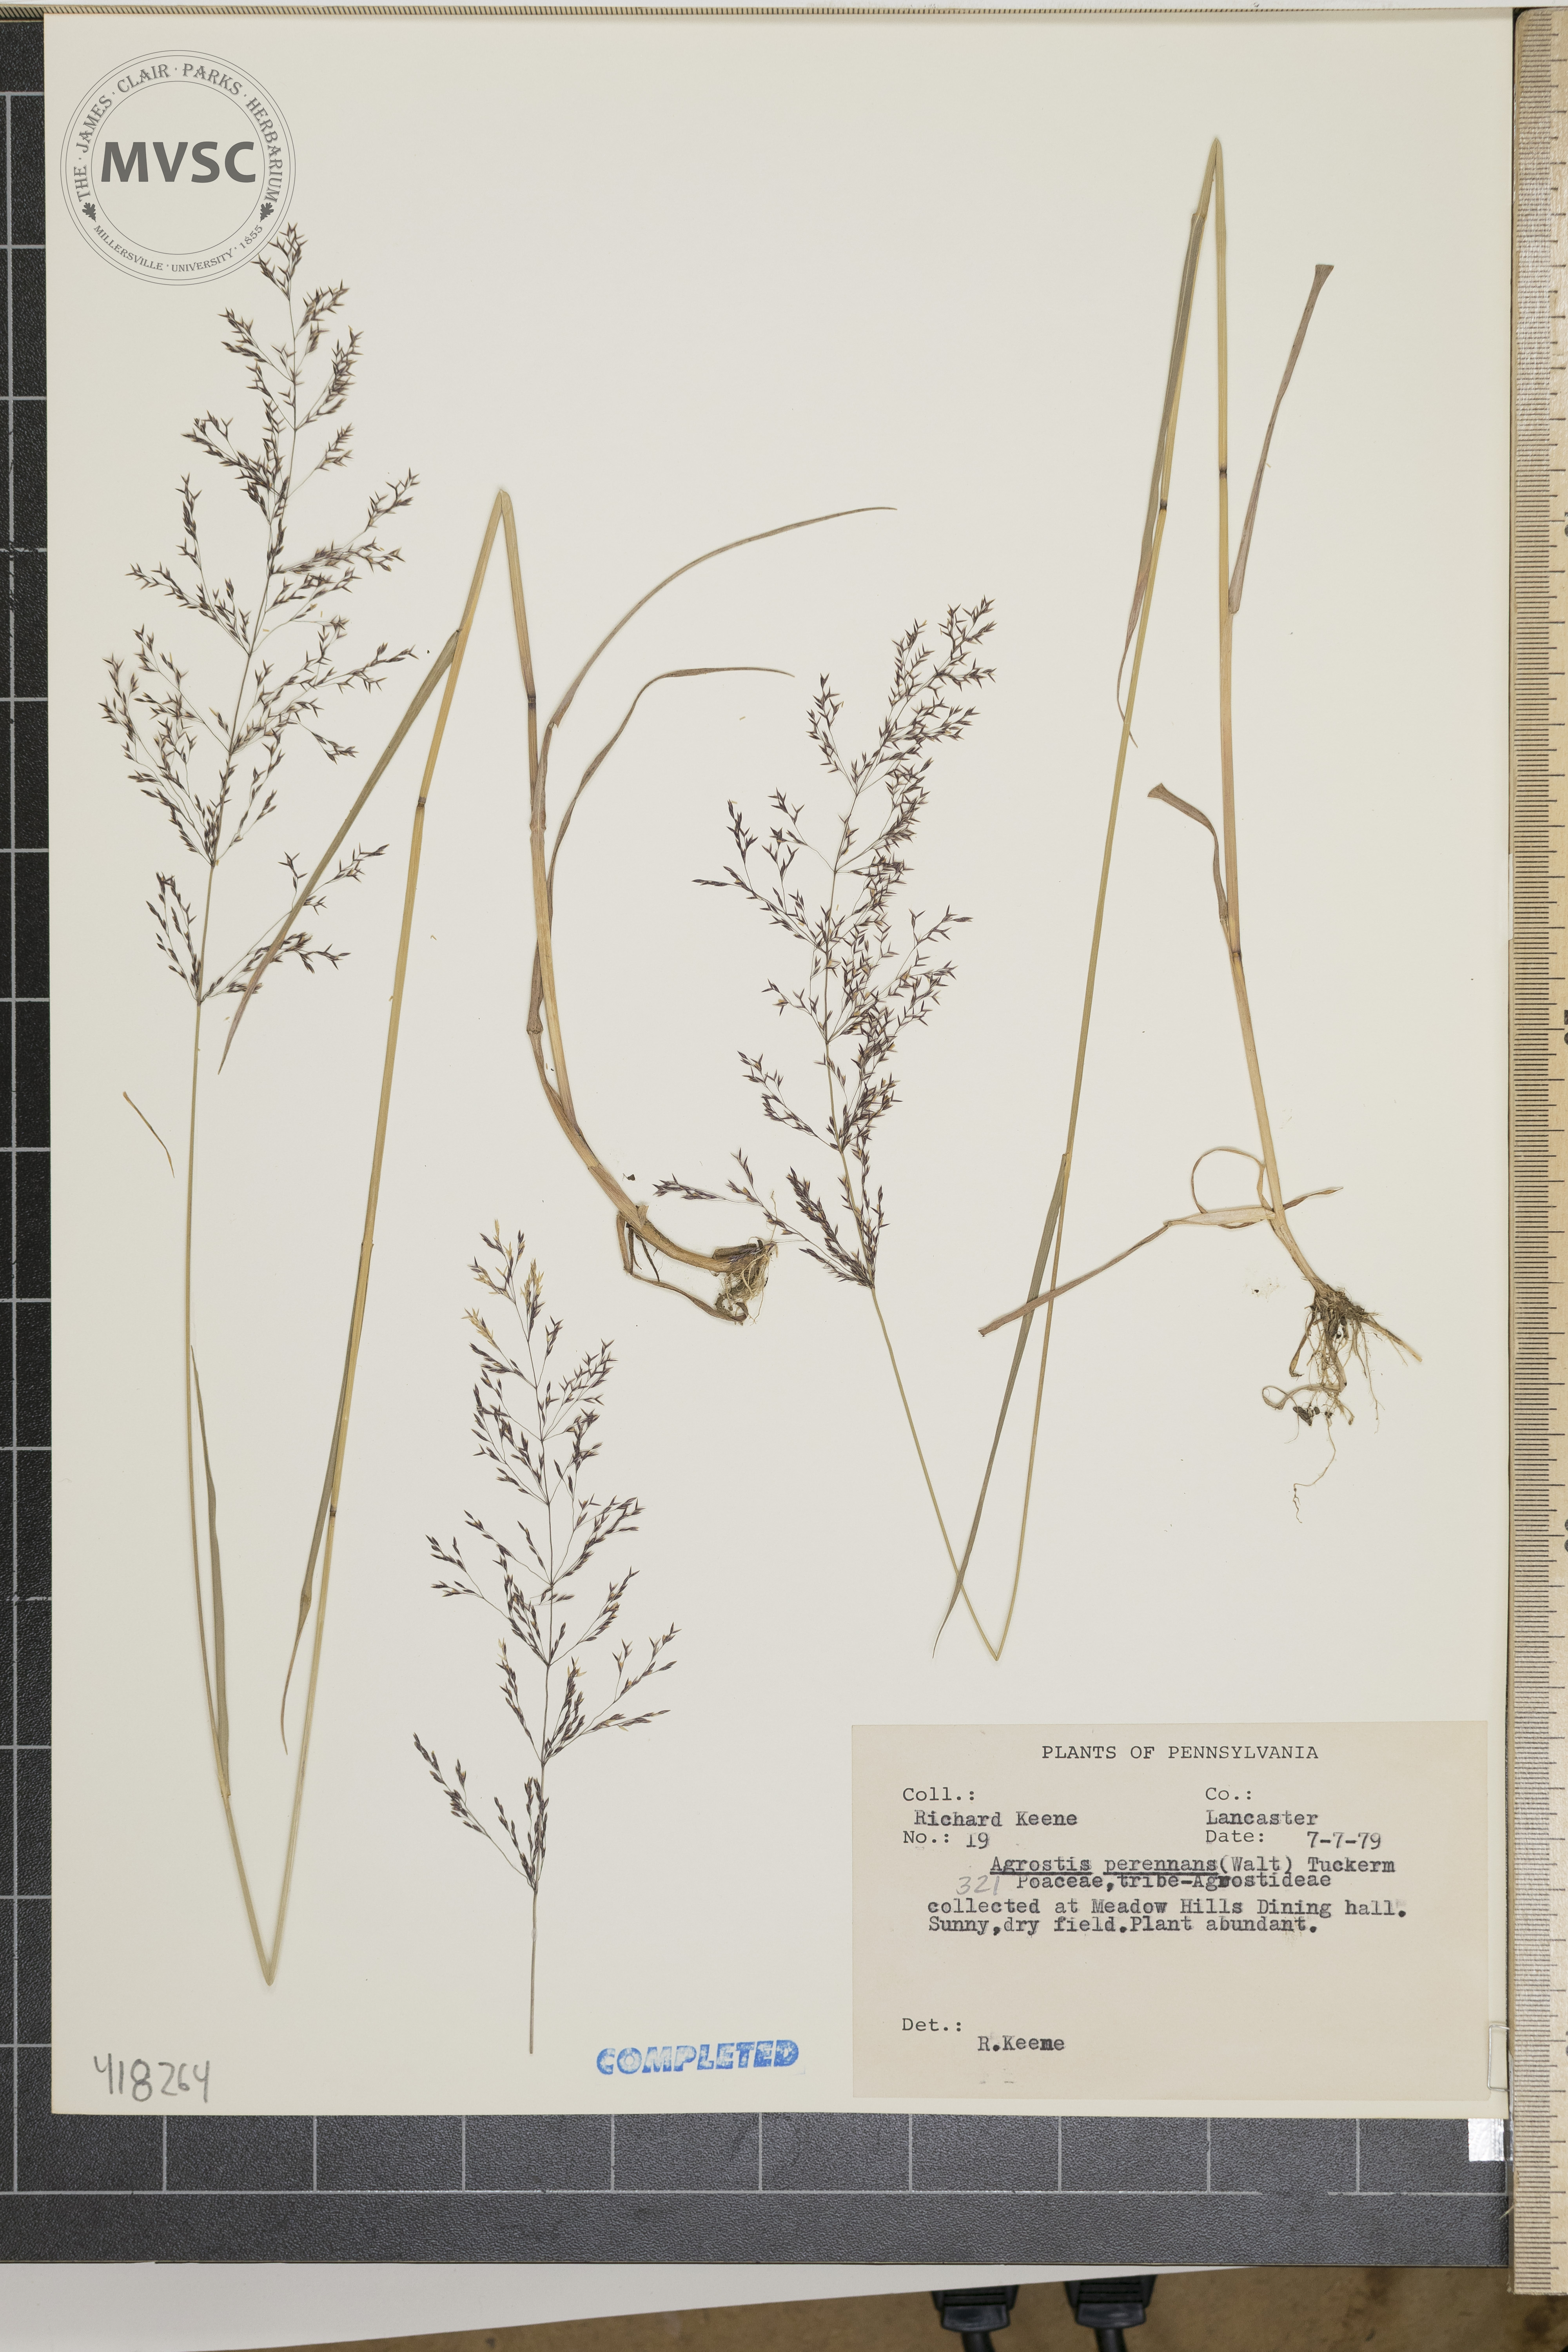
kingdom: Plantae
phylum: Tracheophyta
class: Liliopsida
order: Poales
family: Poaceae
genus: Agrostis
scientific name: Agrostis gigantea
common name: Upland bentgrass
